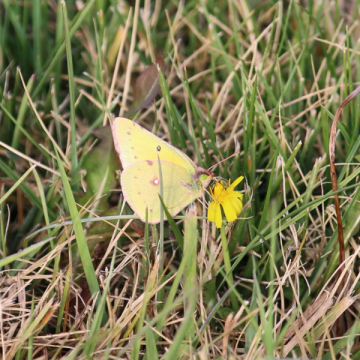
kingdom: Animalia
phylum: Arthropoda
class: Insecta
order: Lepidoptera
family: Pieridae
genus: Colias
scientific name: Colias eurytheme
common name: Orange Sulphur
